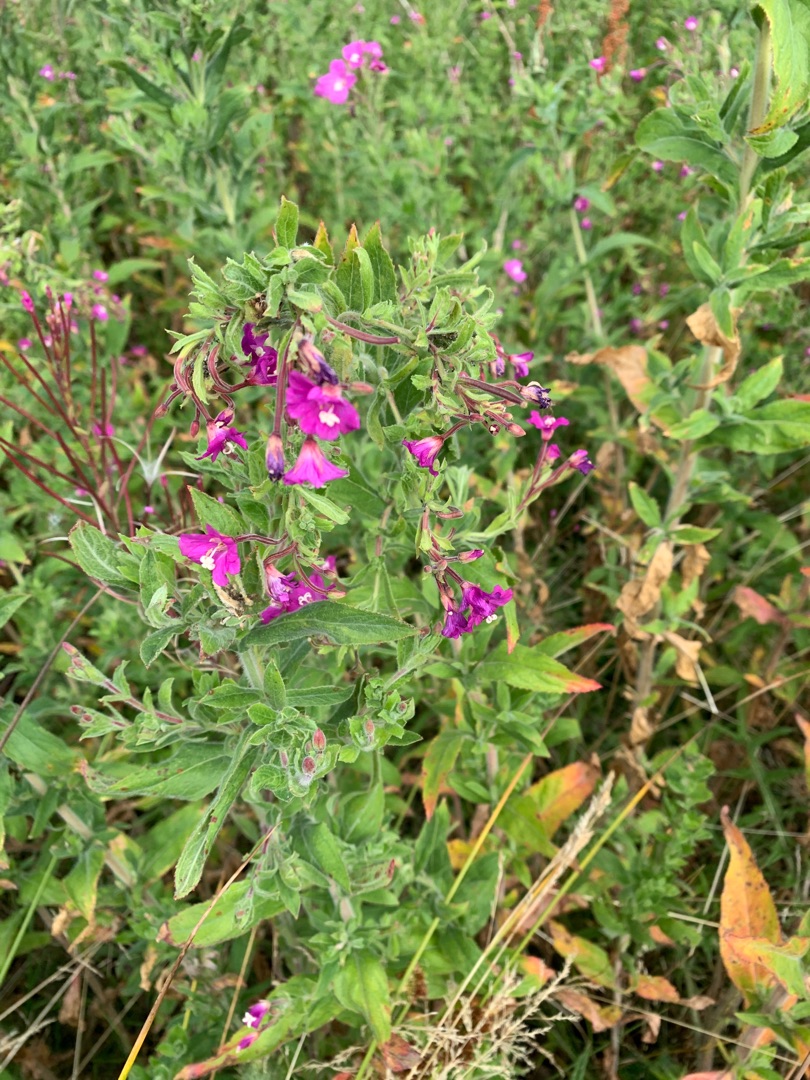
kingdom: Plantae
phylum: Tracheophyta
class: Magnoliopsida
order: Myrtales
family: Onagraceae
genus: Epilobium
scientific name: Epilobium hirsutum
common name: Lådden dueurt
